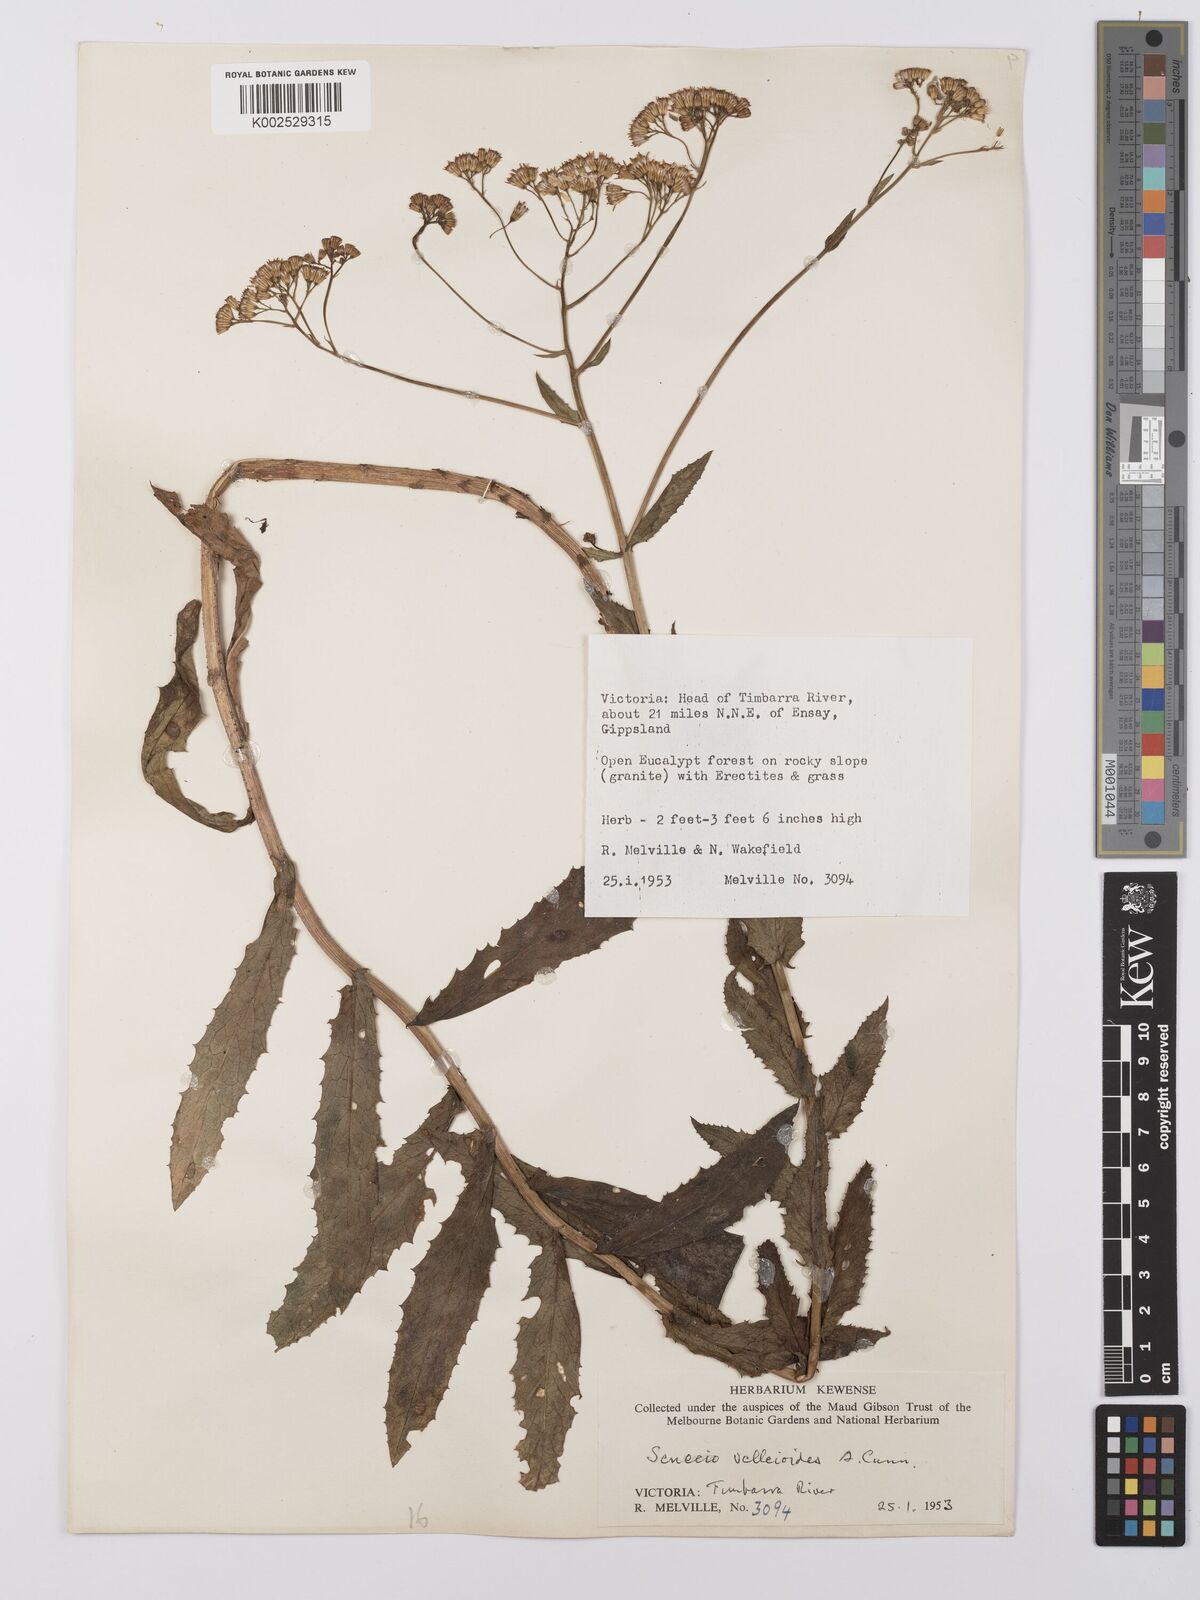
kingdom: Plantae
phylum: Tracheophyta
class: Magnoliopsida
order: Asterales
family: Asteraceae
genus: Senecio
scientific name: Senecio linearifolius
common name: Fireweed groundsel
